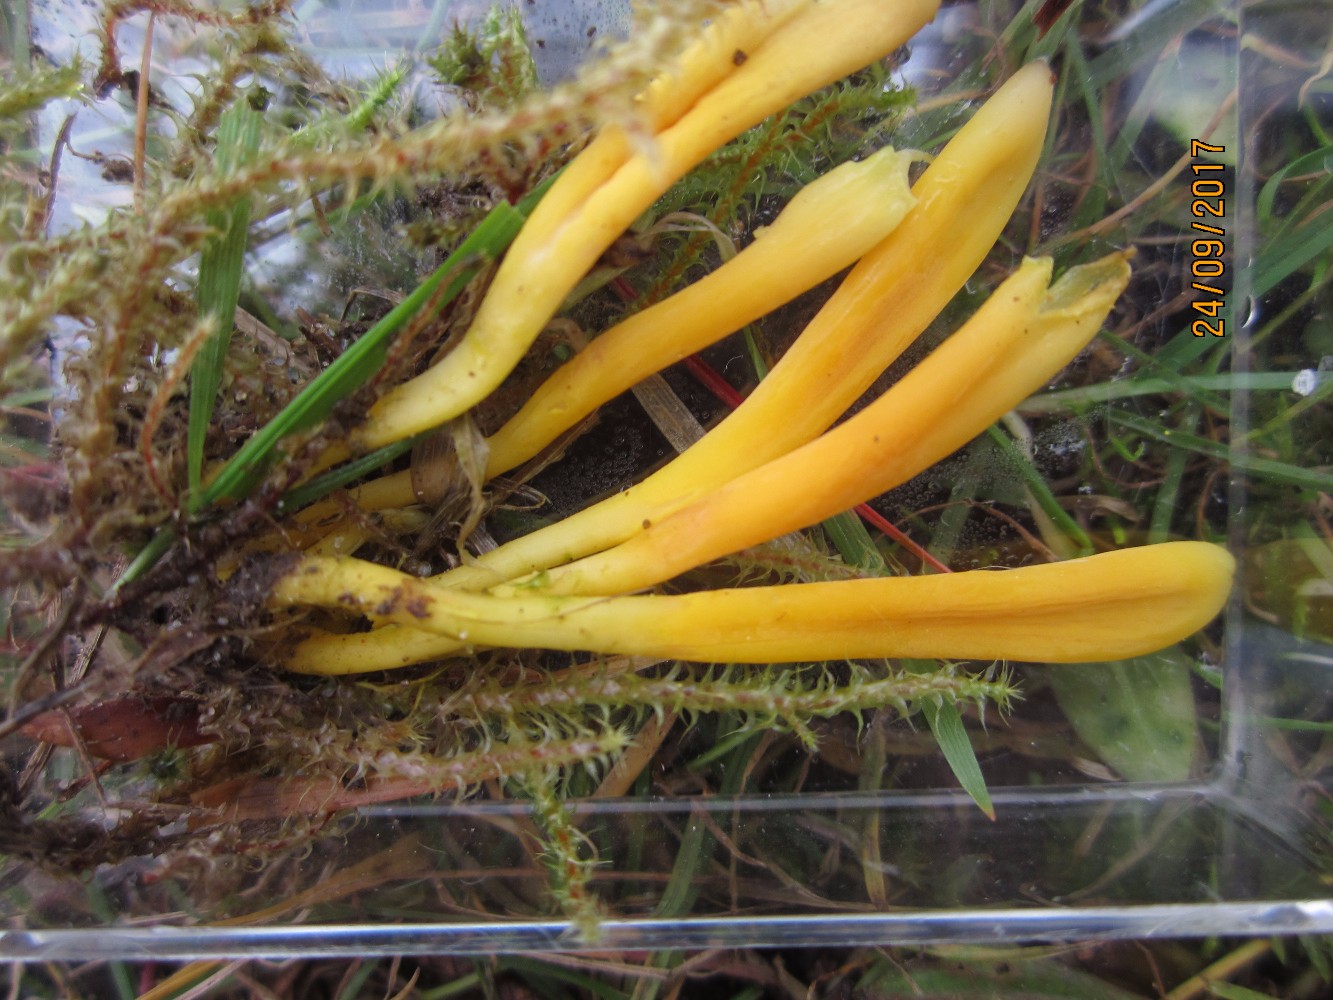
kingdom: Fungi
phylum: Basidiomycota
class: Agaricomycetes
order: Agaricales
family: Clavariaceae
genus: Clavulinopsis
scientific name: Clavulinopsis helvola
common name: orangegul køllesvamp
